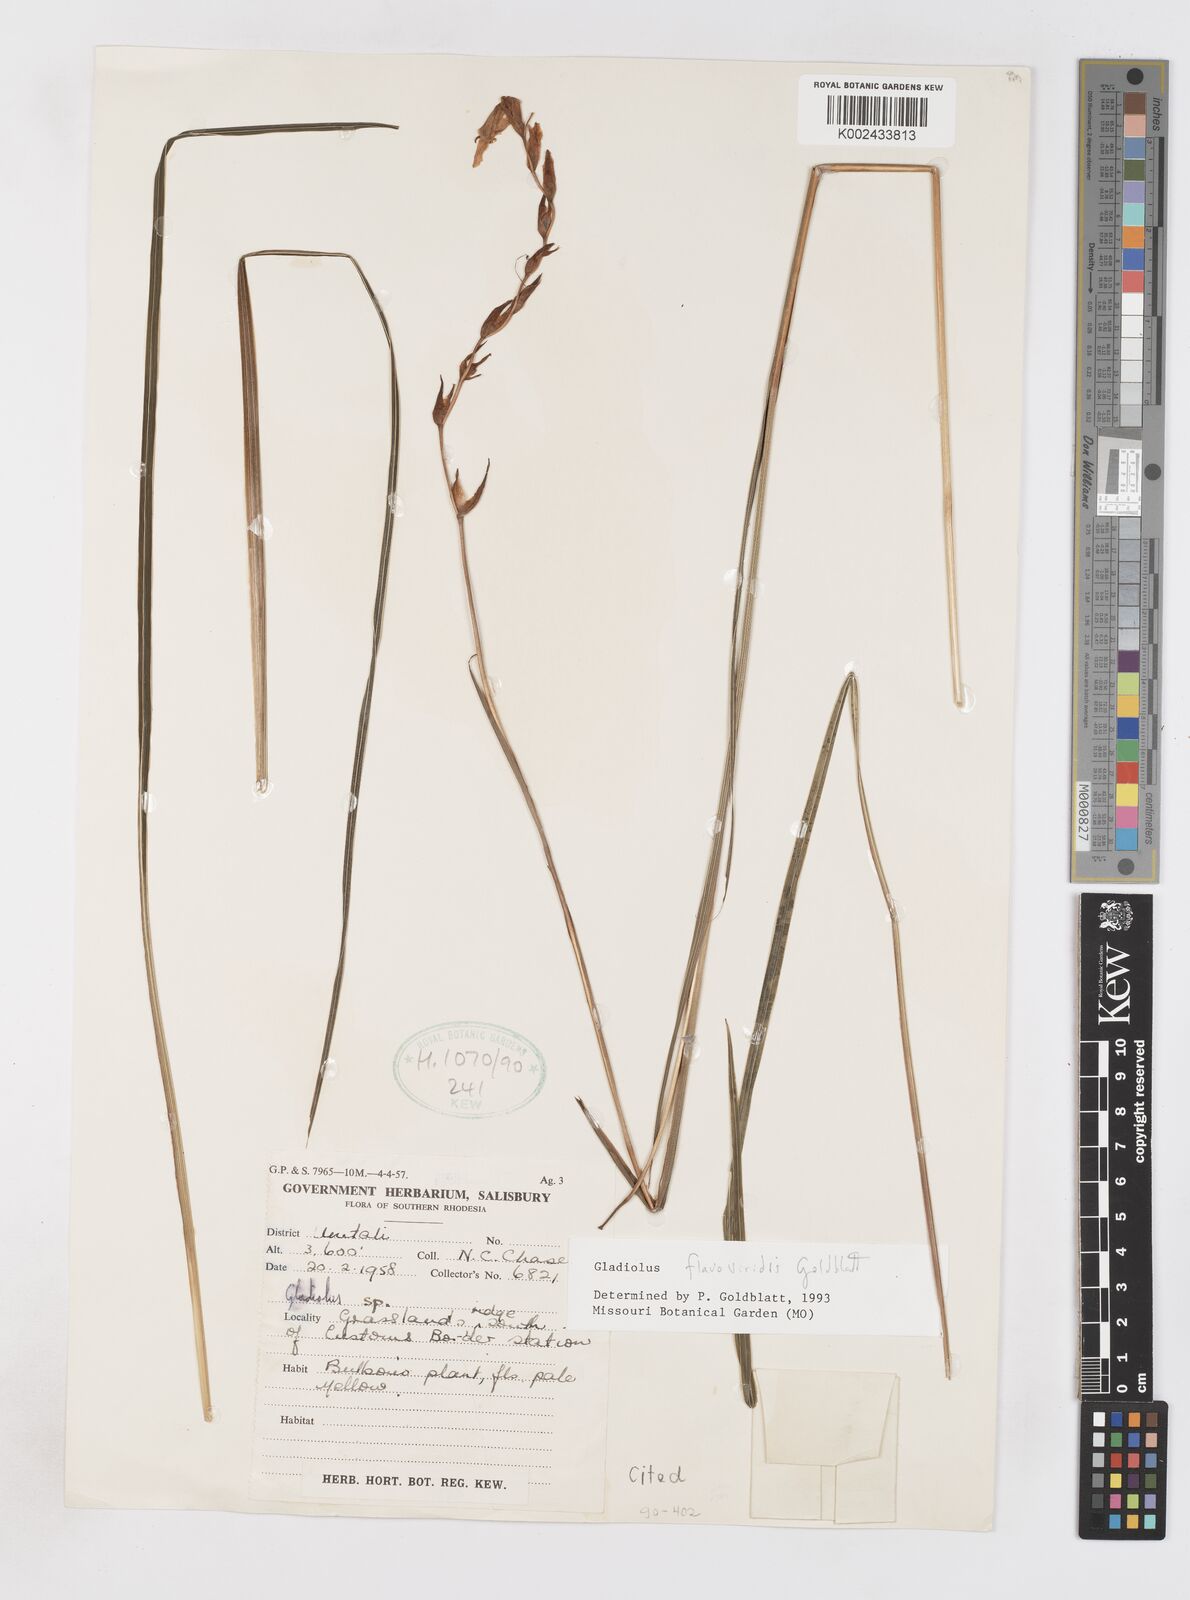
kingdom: Plantae
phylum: Tracheophyta
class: Liliopsida
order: Asparagales
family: Iridaceae
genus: Gladiolus
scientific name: Gladiolus flavoviridis
